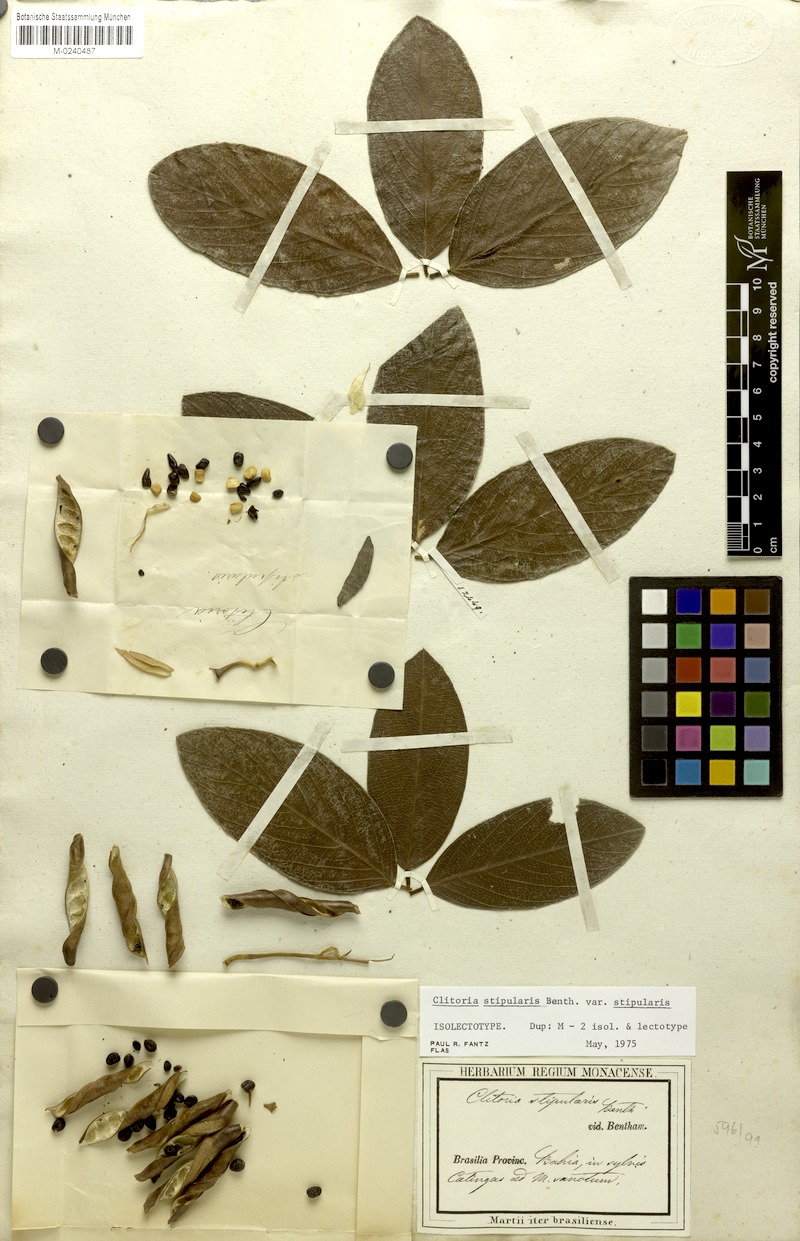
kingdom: Plantae
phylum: Tracheophyta
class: Magnoliopsida
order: Fabales
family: Fabaceae
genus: Clitoria
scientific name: Clitoria stipularis
